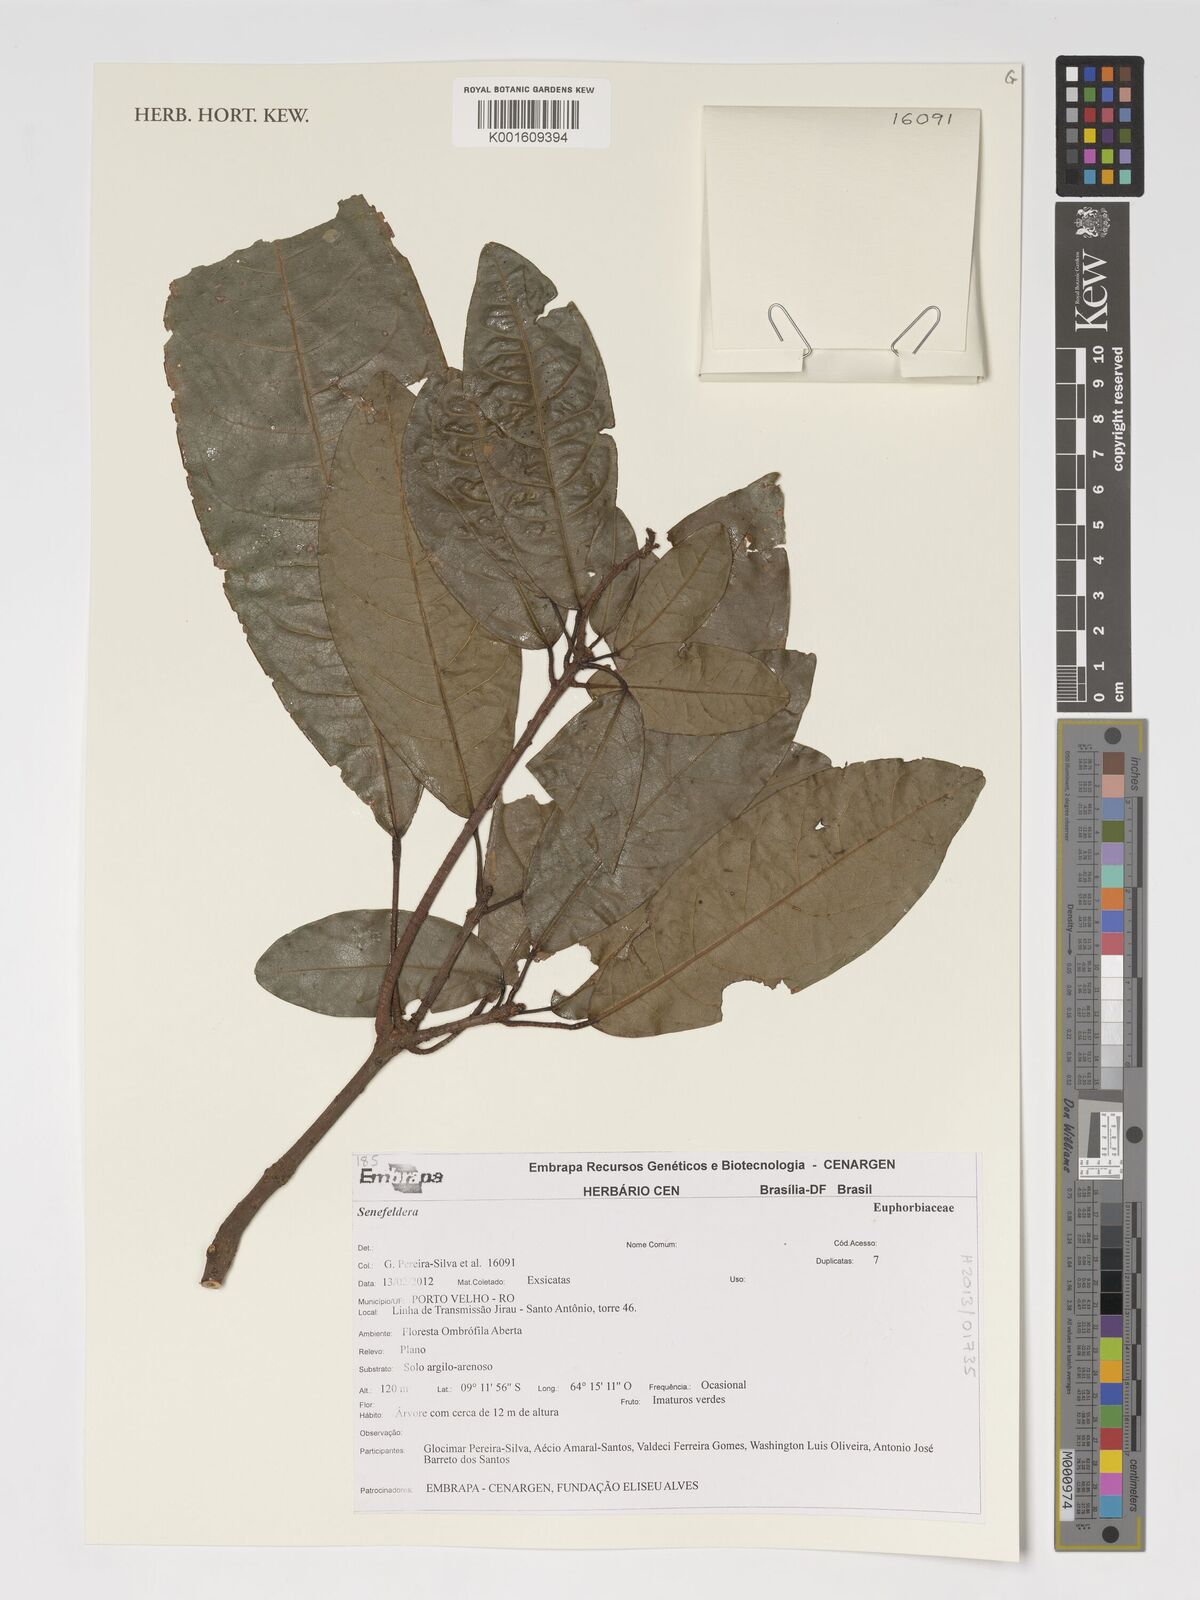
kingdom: Plantae
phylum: Tracheophyta
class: Magnoliopsida
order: Malpighiales
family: Euphorbiaceae
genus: Senefeldera
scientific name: Senefeldera
